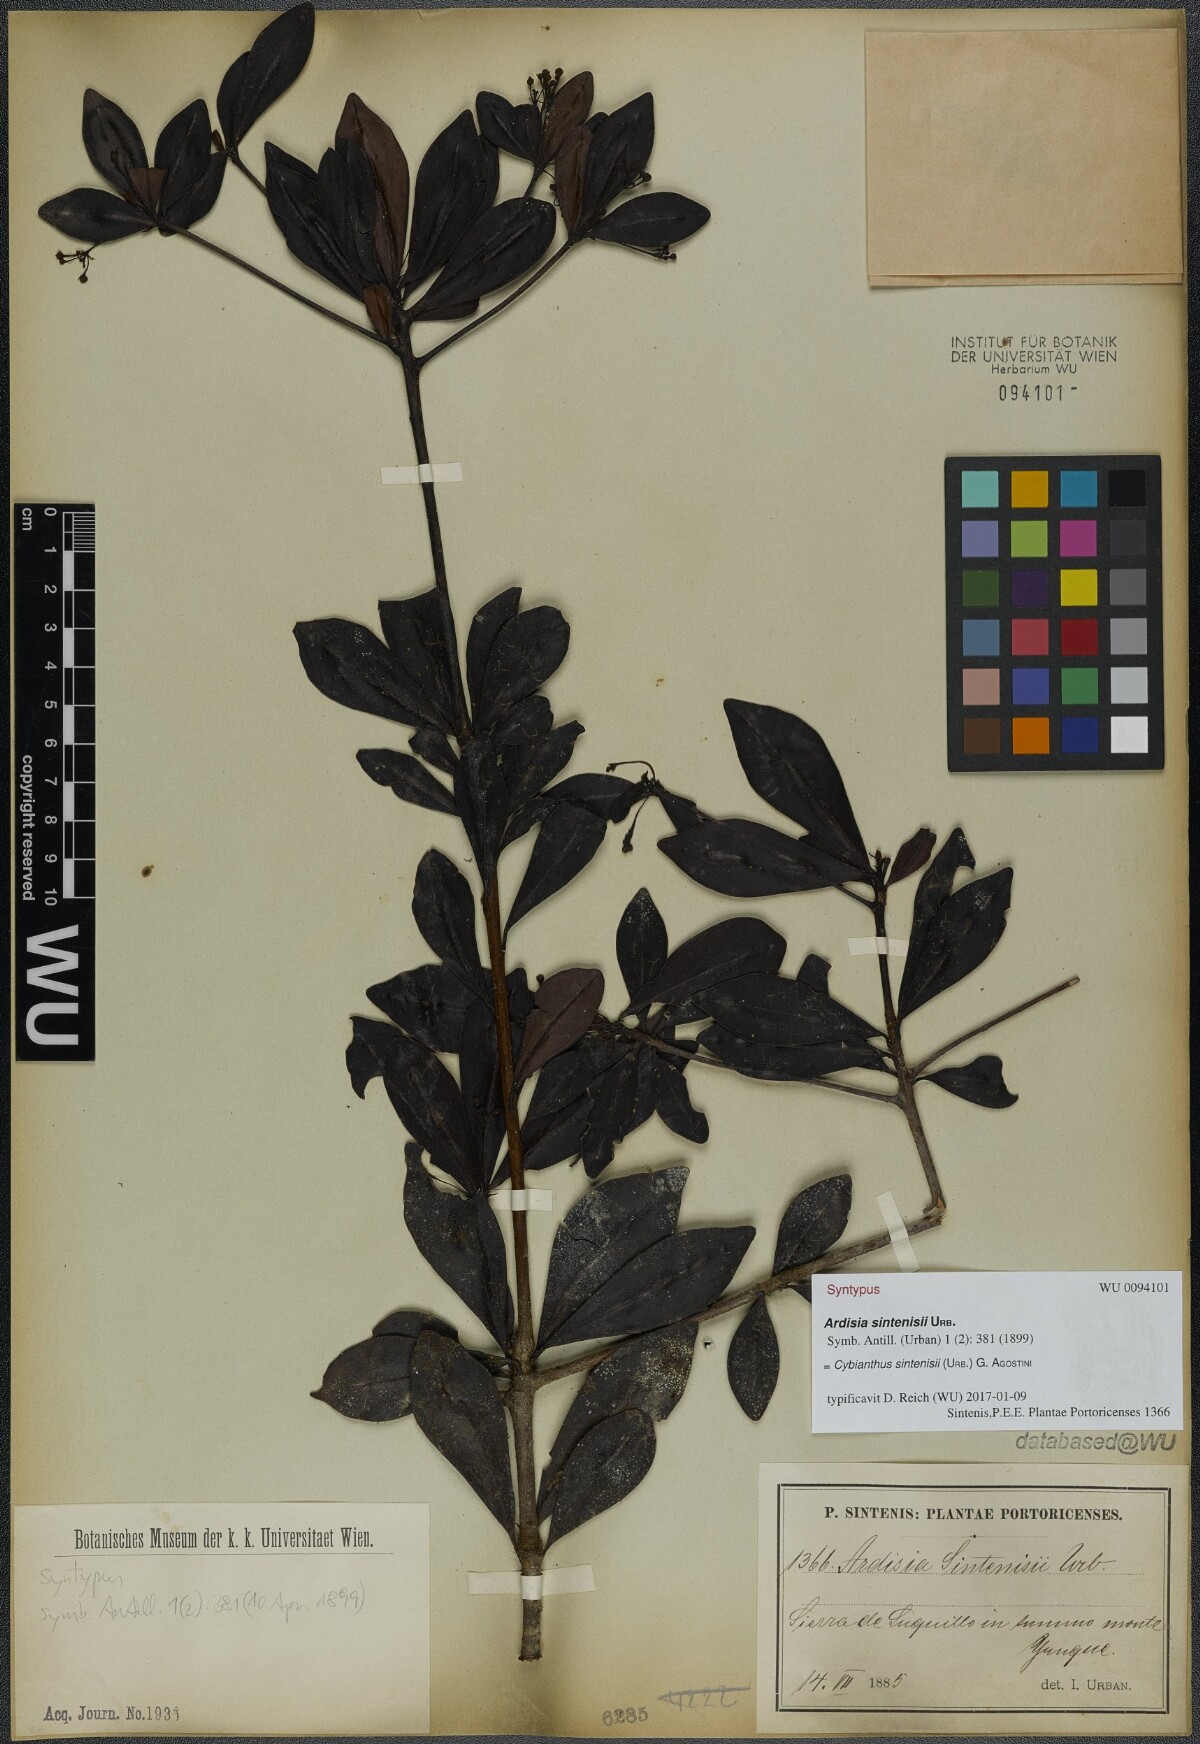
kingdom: Plantae
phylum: Tracheophyta
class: Magnoliopsida
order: Ericales
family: Primulaceae
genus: Cybianthus
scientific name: Cybianthus sintenisii
